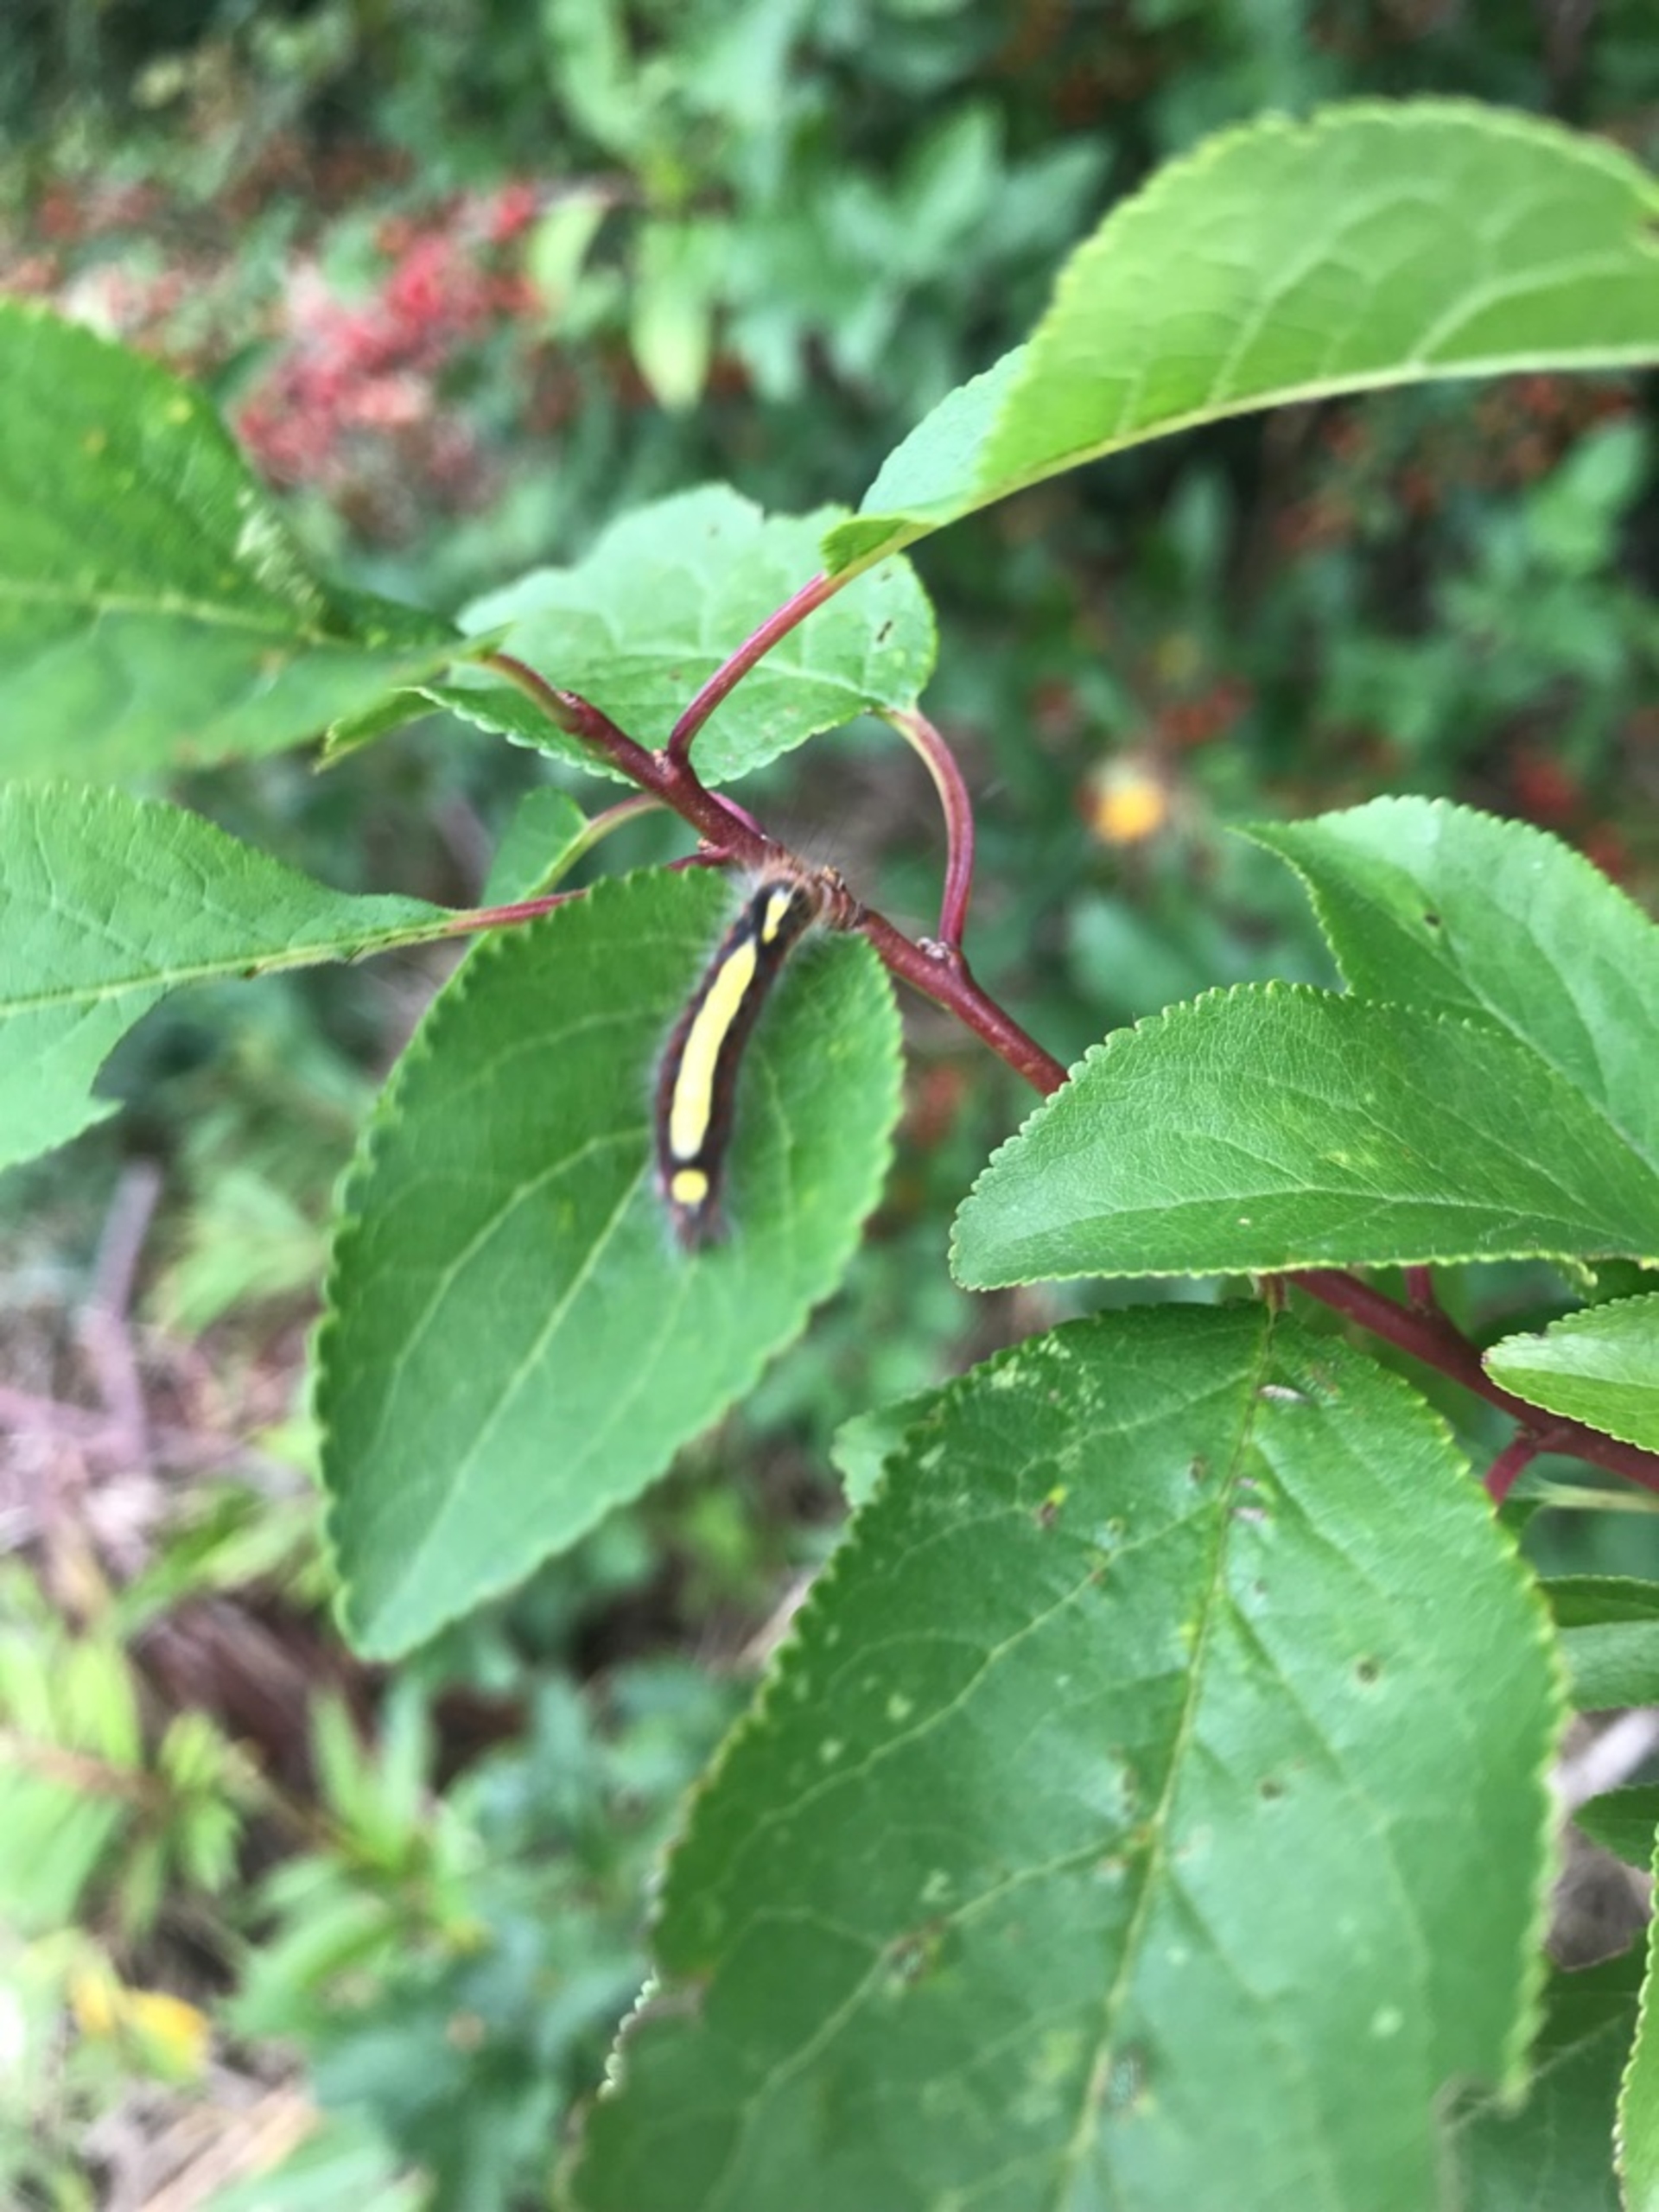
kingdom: Animalia
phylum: Arthropoda
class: Insecta
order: Lepidoptera
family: Noctuidae
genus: Acronicta
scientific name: Acronicta psi
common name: Psi-ugle
